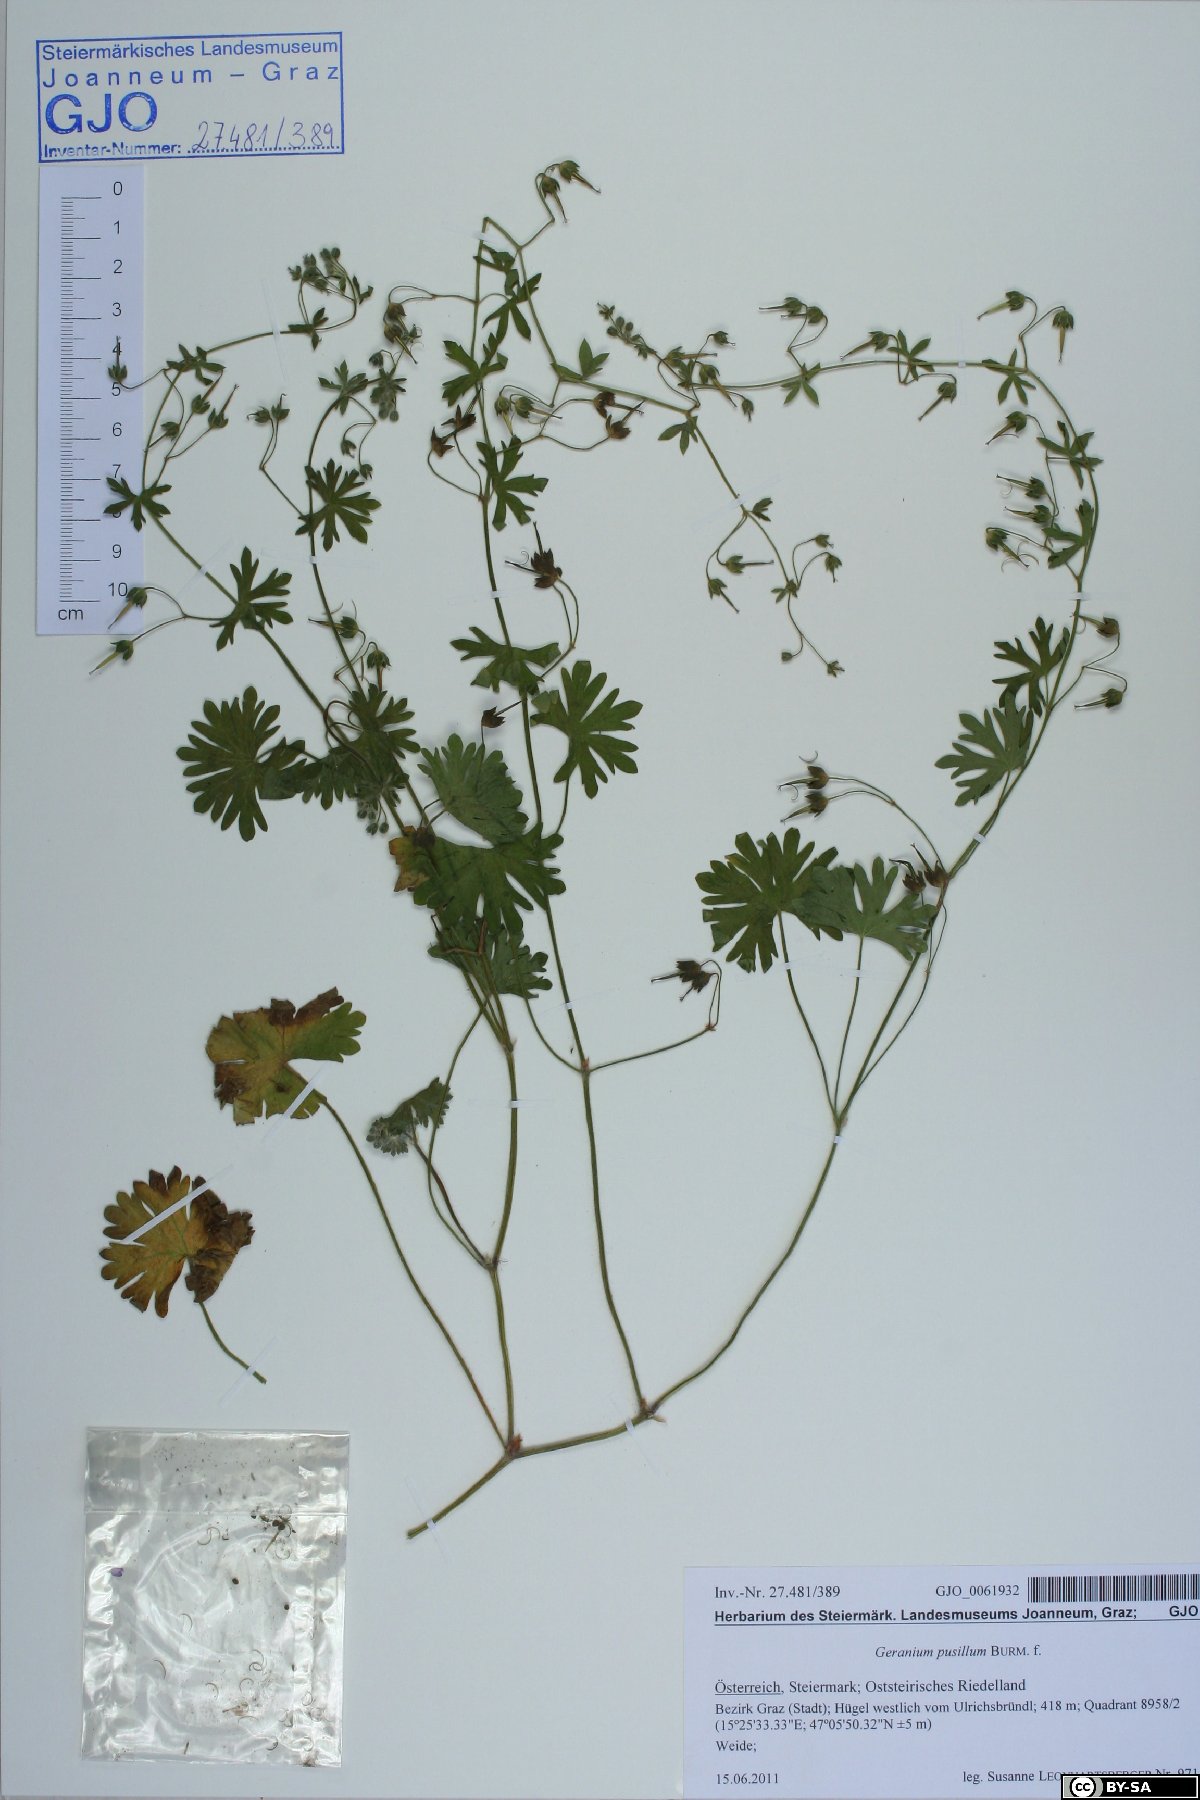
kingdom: Plantae
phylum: Tracheophyta
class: Magnoliopsida
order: Geraniales
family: Geraniaceae
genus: Geranium
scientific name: Geranium pusillum
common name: Small geranium
